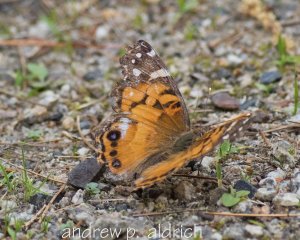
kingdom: Animalia
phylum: Arthropoda
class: Insecta
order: Lepidoptera
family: Nymphalidae
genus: Vanessa
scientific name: Vanessa virginiensis
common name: American Lady
